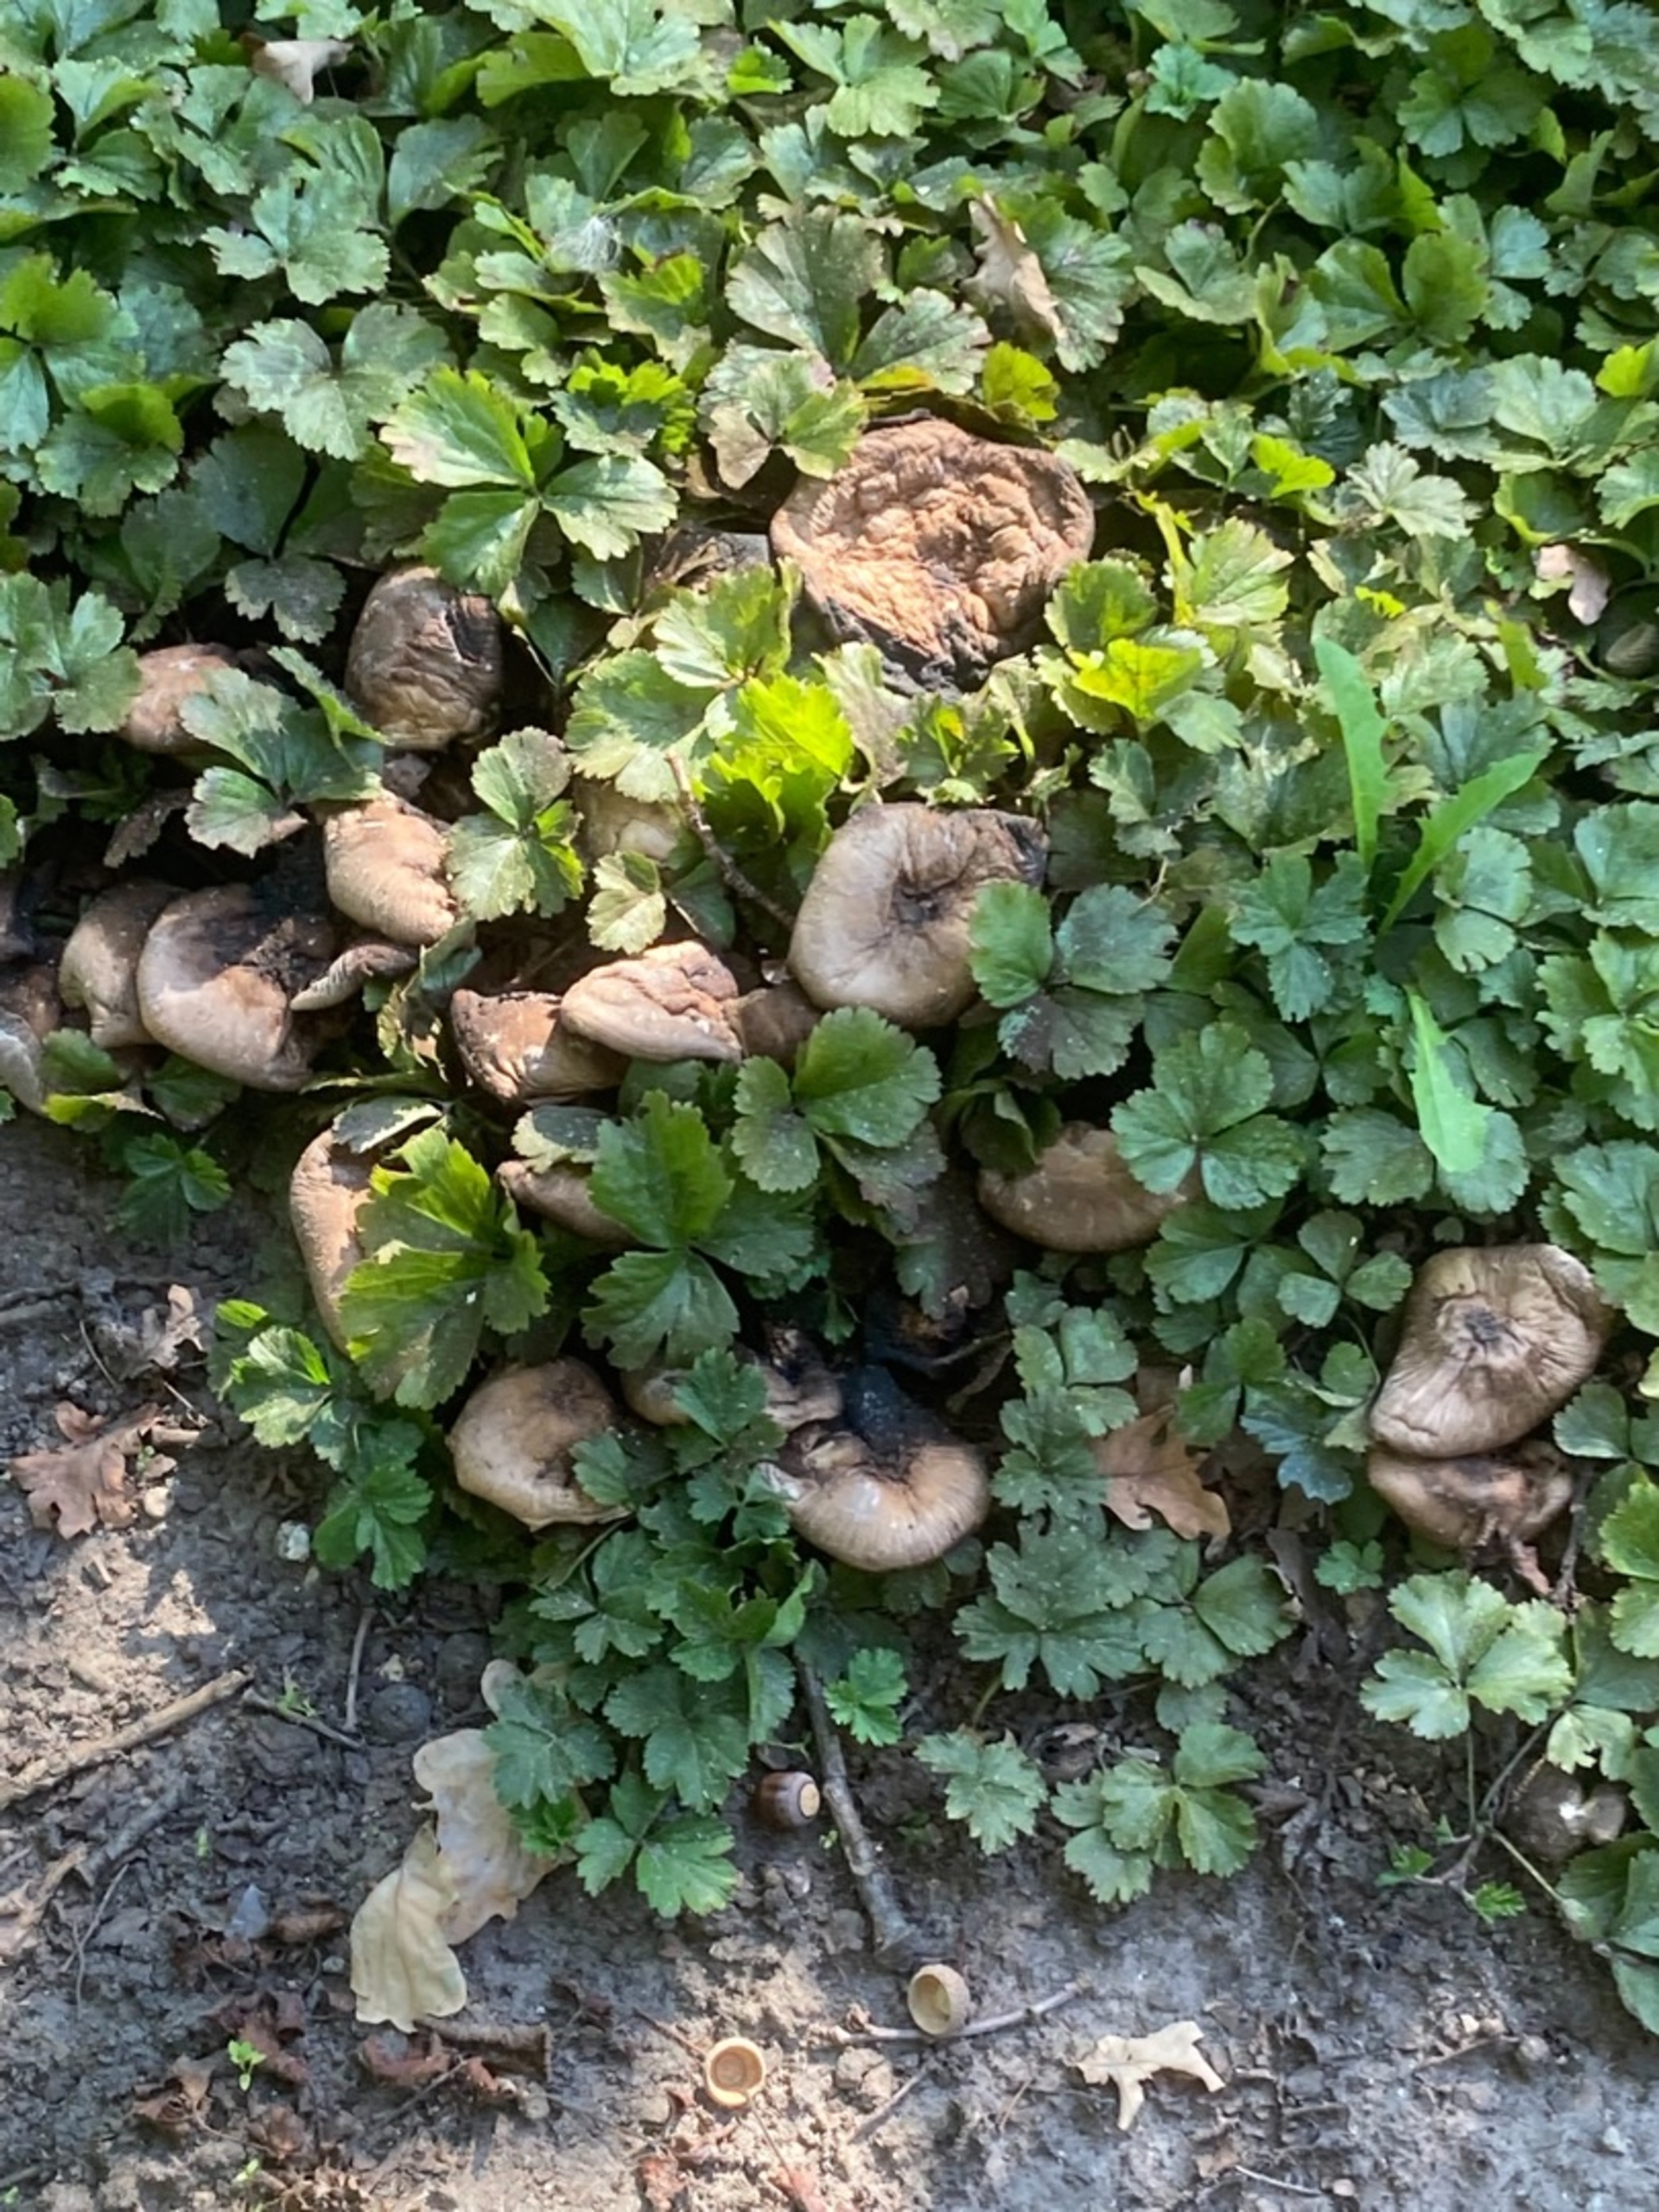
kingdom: Fungi
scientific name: Fungi
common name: Svamperiget
